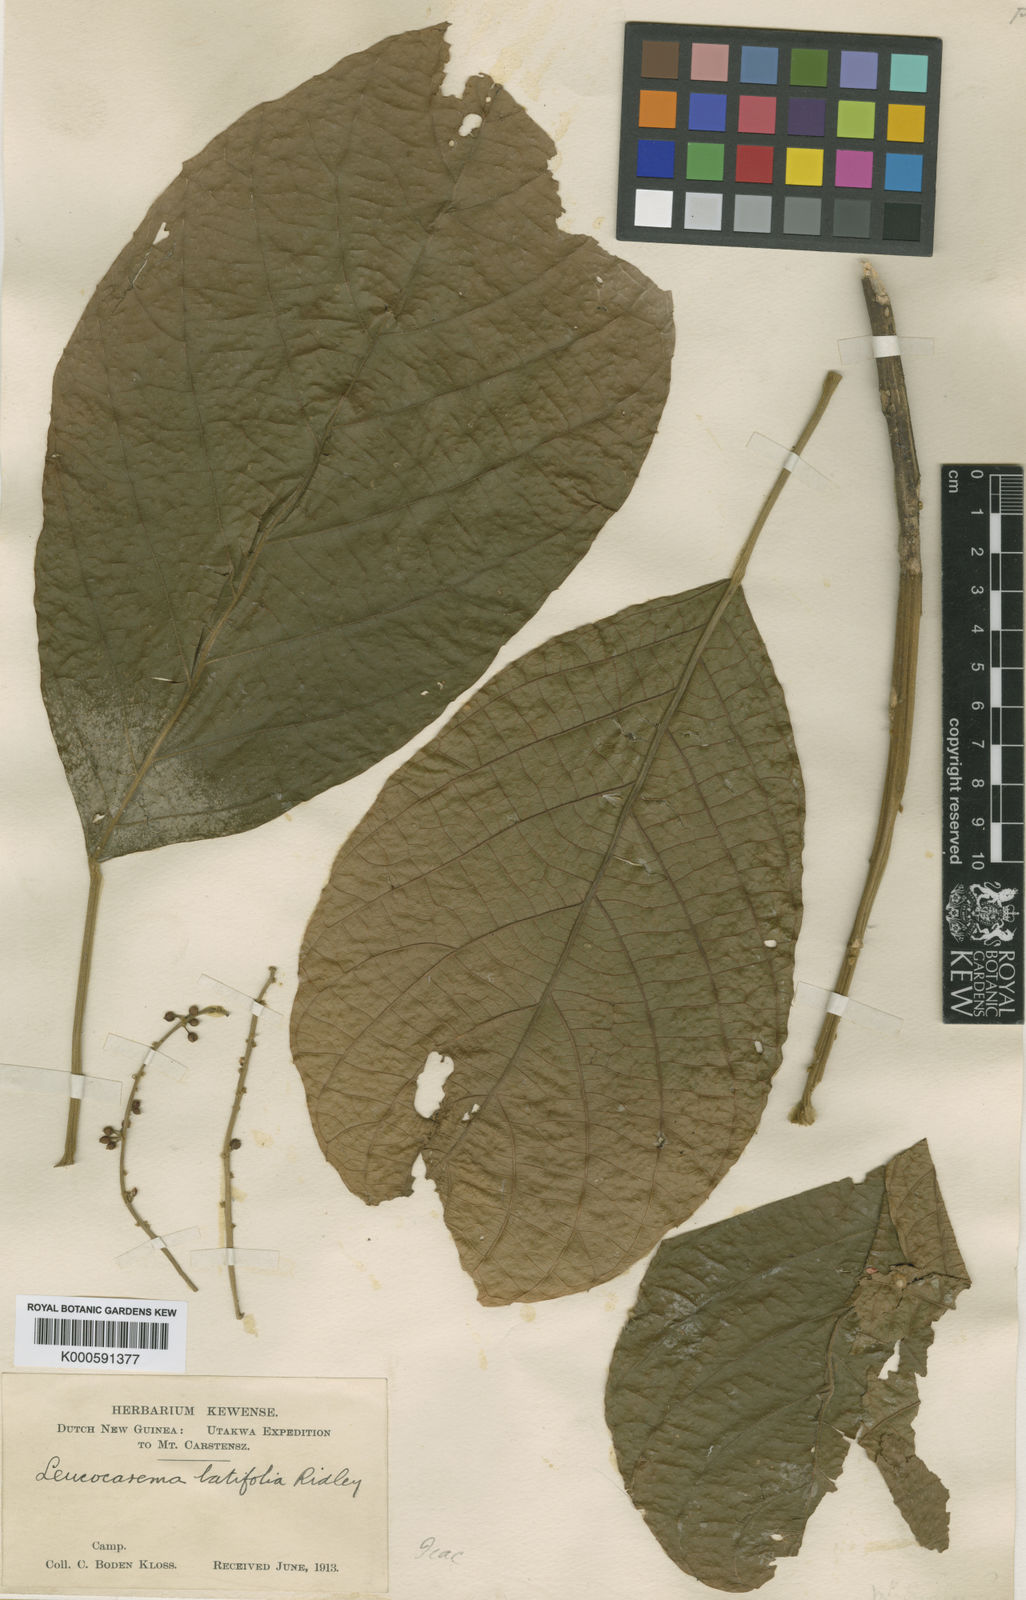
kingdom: Plantae
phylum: Tracheophyta
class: Magnoliopsida
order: Malpighiales
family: Achariaceae
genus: Trichadenia
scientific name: Trichadenia philippinensis
